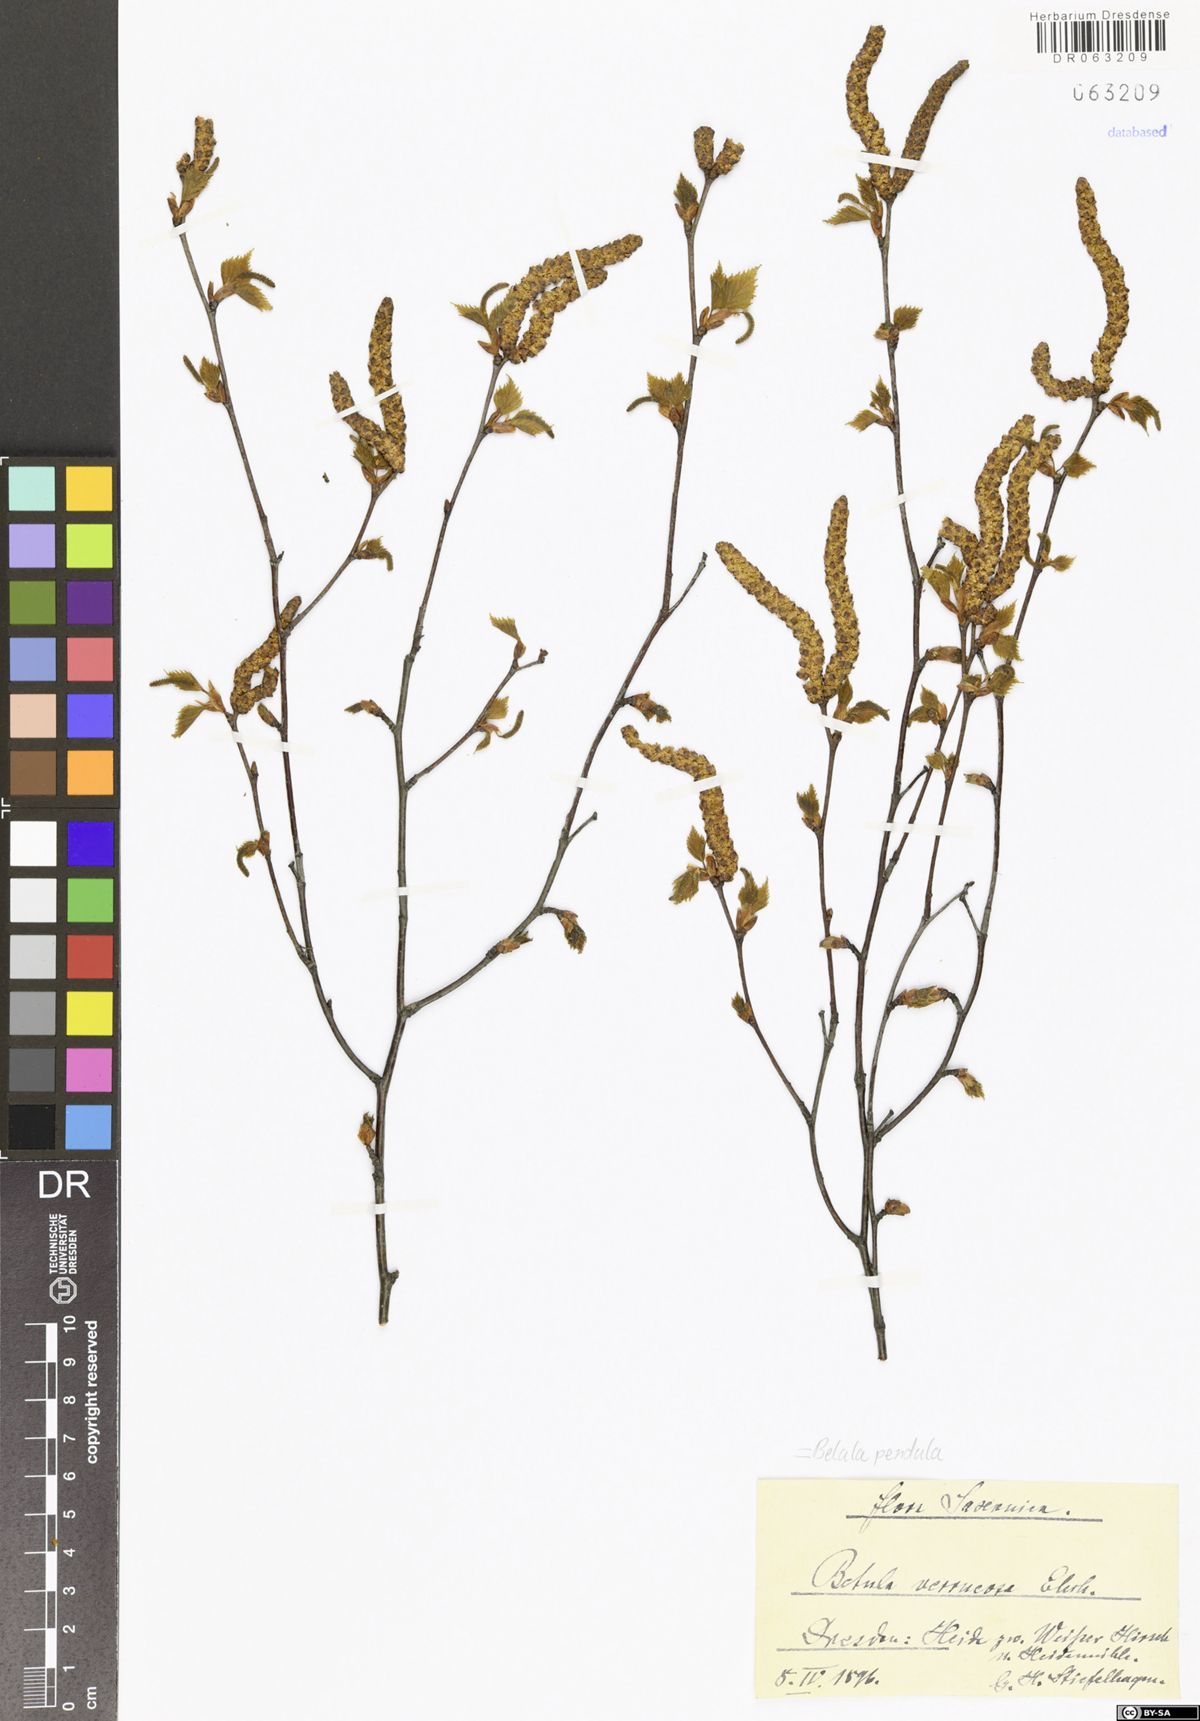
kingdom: Plantae
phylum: Tracheophyta
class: Magnoliopsida
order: Fagales
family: Betulaceae
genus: Betula
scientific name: Betula pendula
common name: Silver birch
